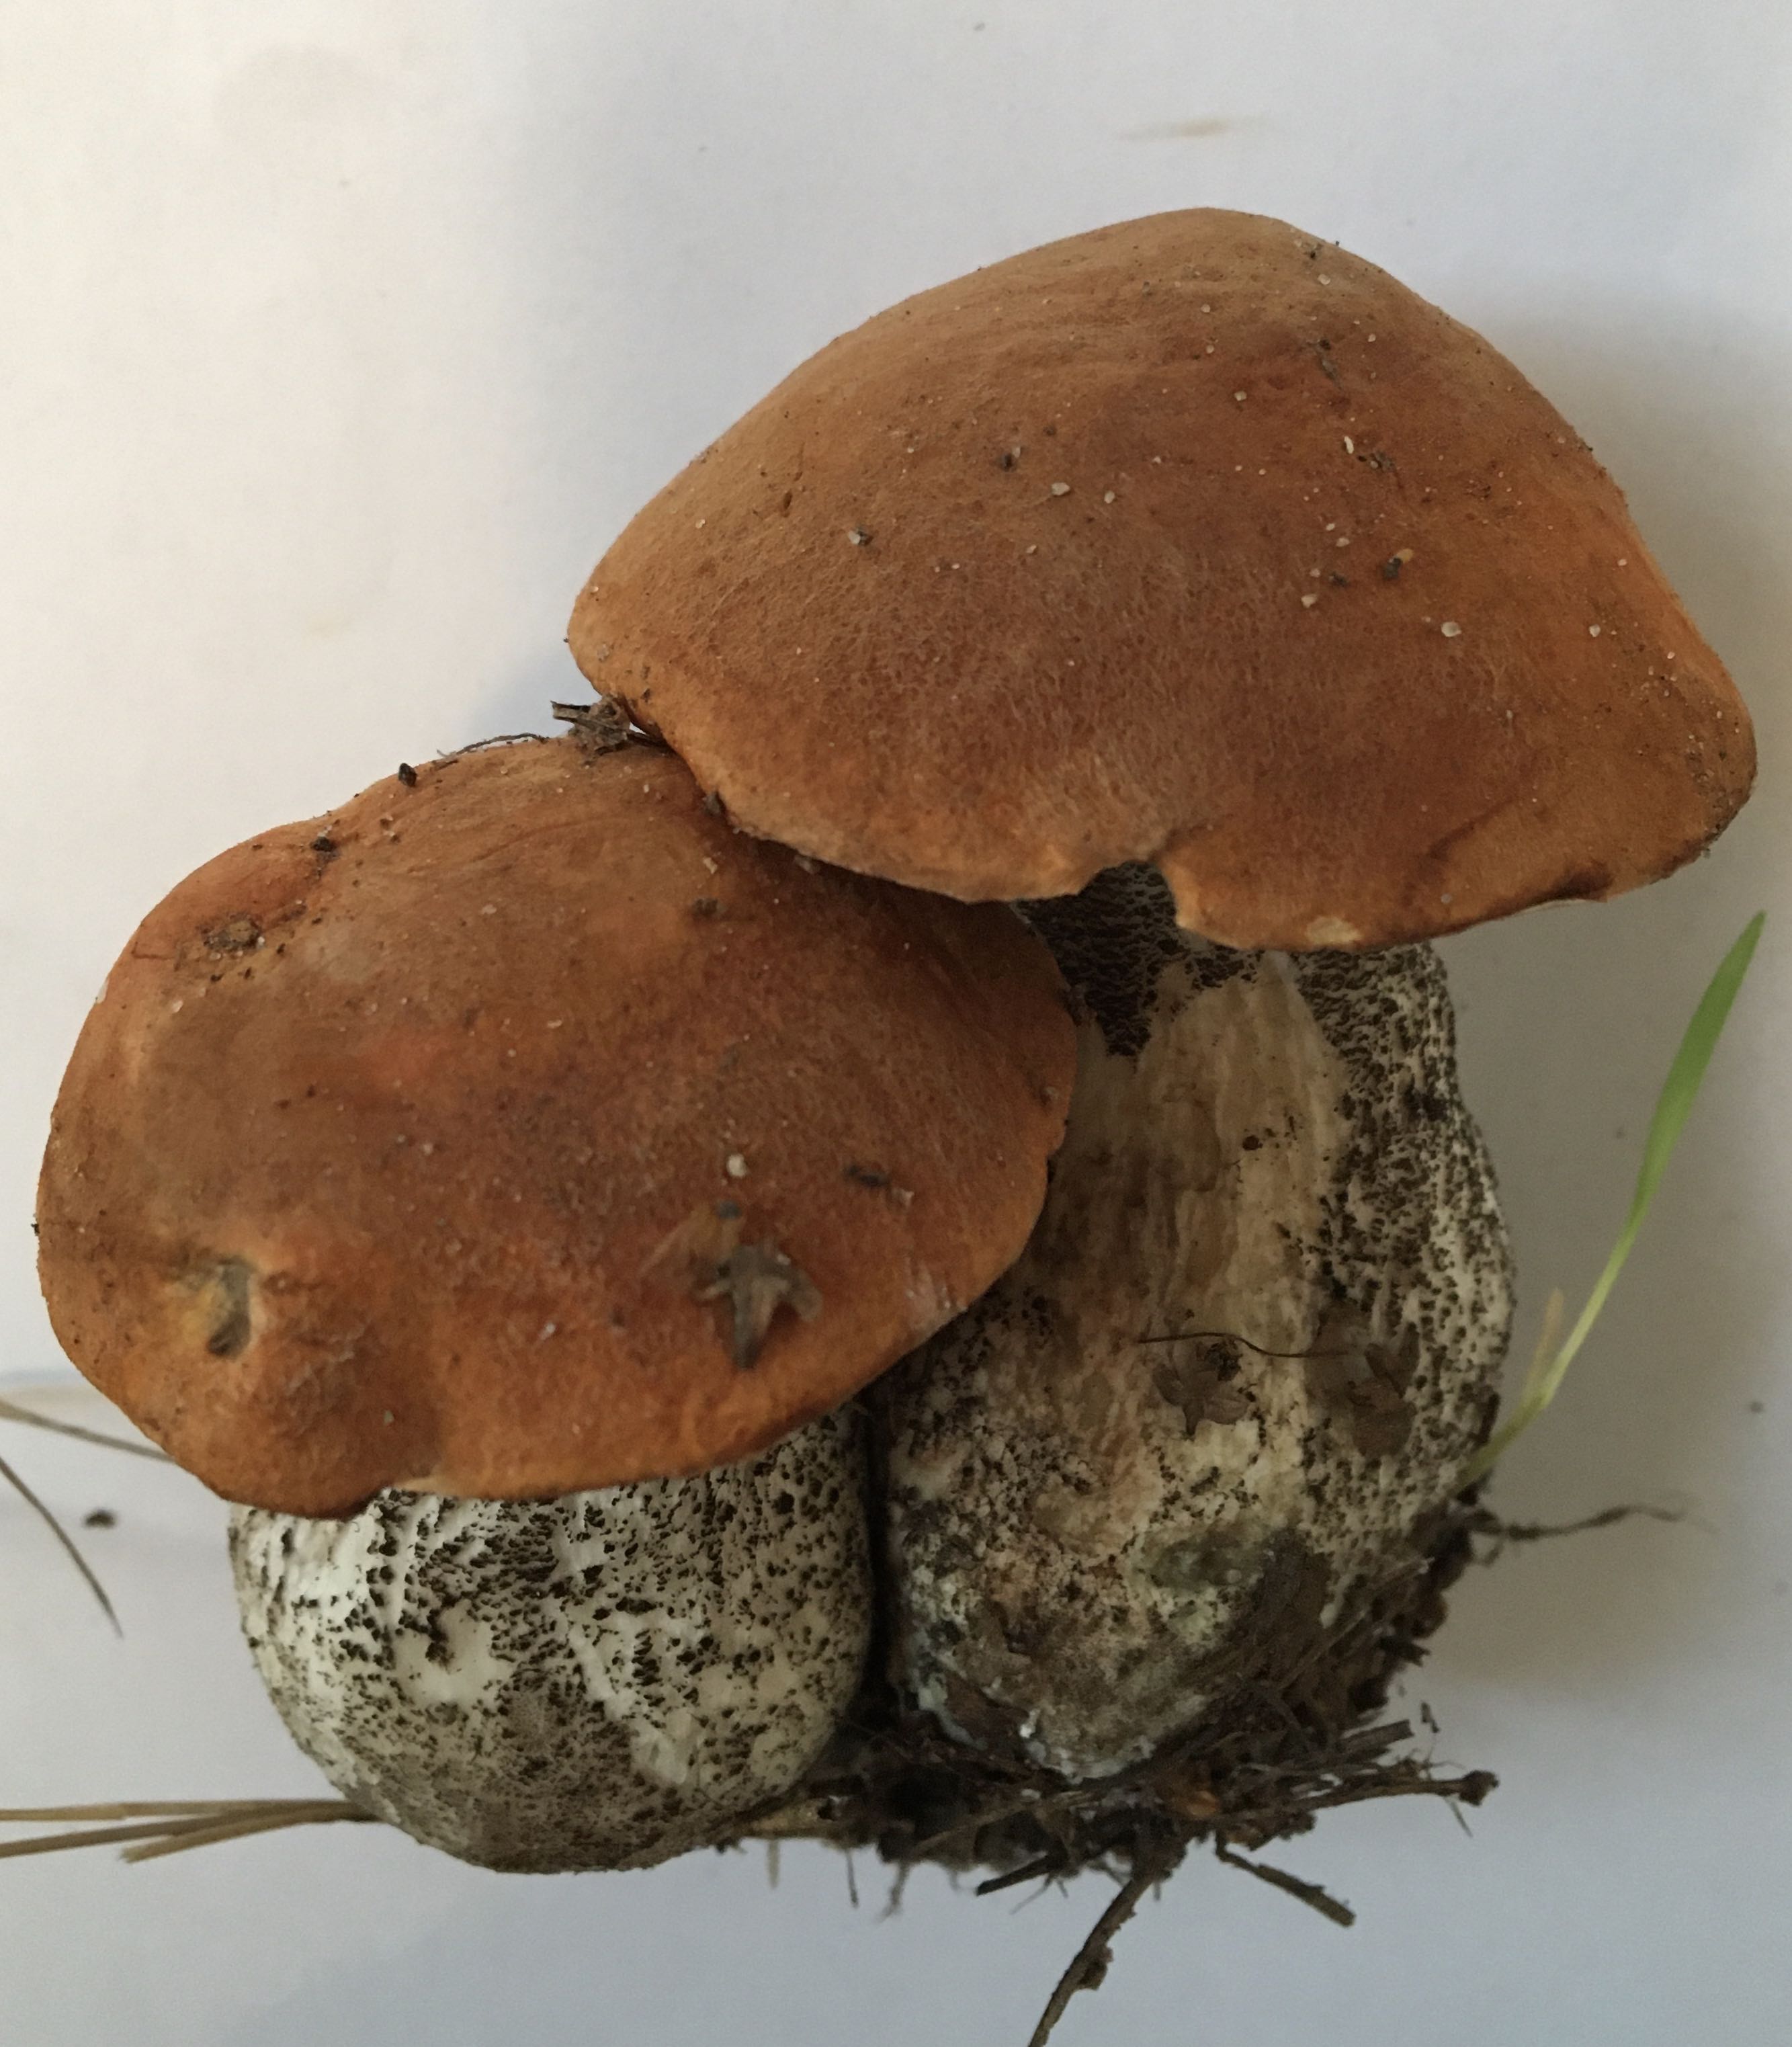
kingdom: Fungi
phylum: Basidiomycota
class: Agaricomycetes
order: Boletales
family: Boletaceae
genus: Leccinum
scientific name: Leccinum versipelle
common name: orange skælrørhat
